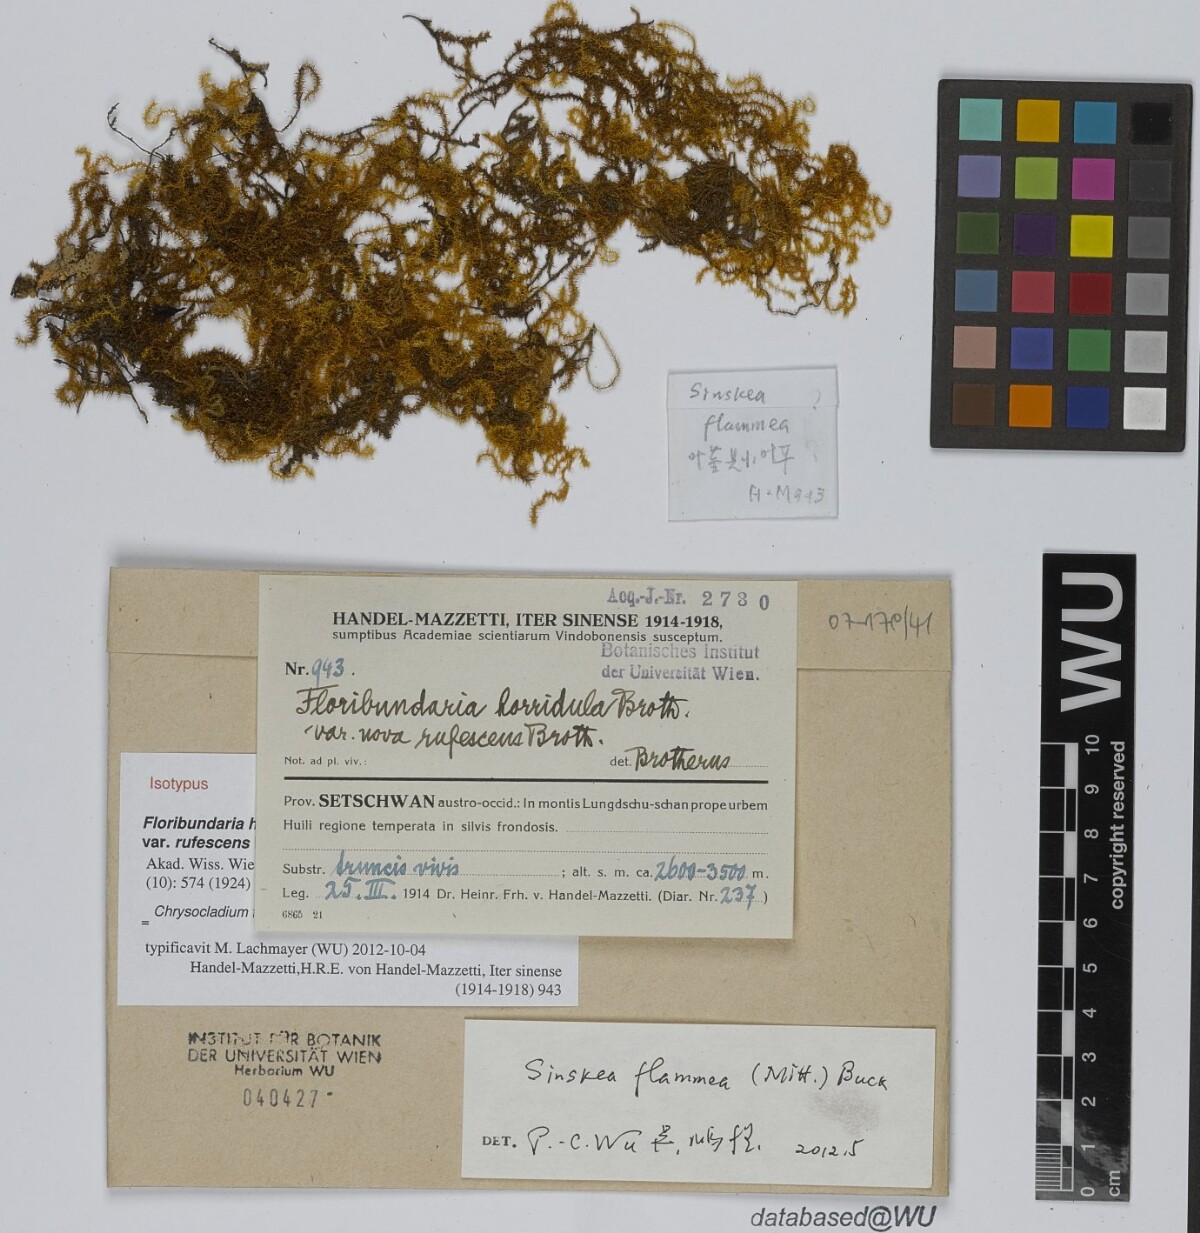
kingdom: Plantae
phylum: Bryophyta
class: Bryopsida
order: Hypnales
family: Meteoriaceae
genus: Sinskea
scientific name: Sinskea flammea
